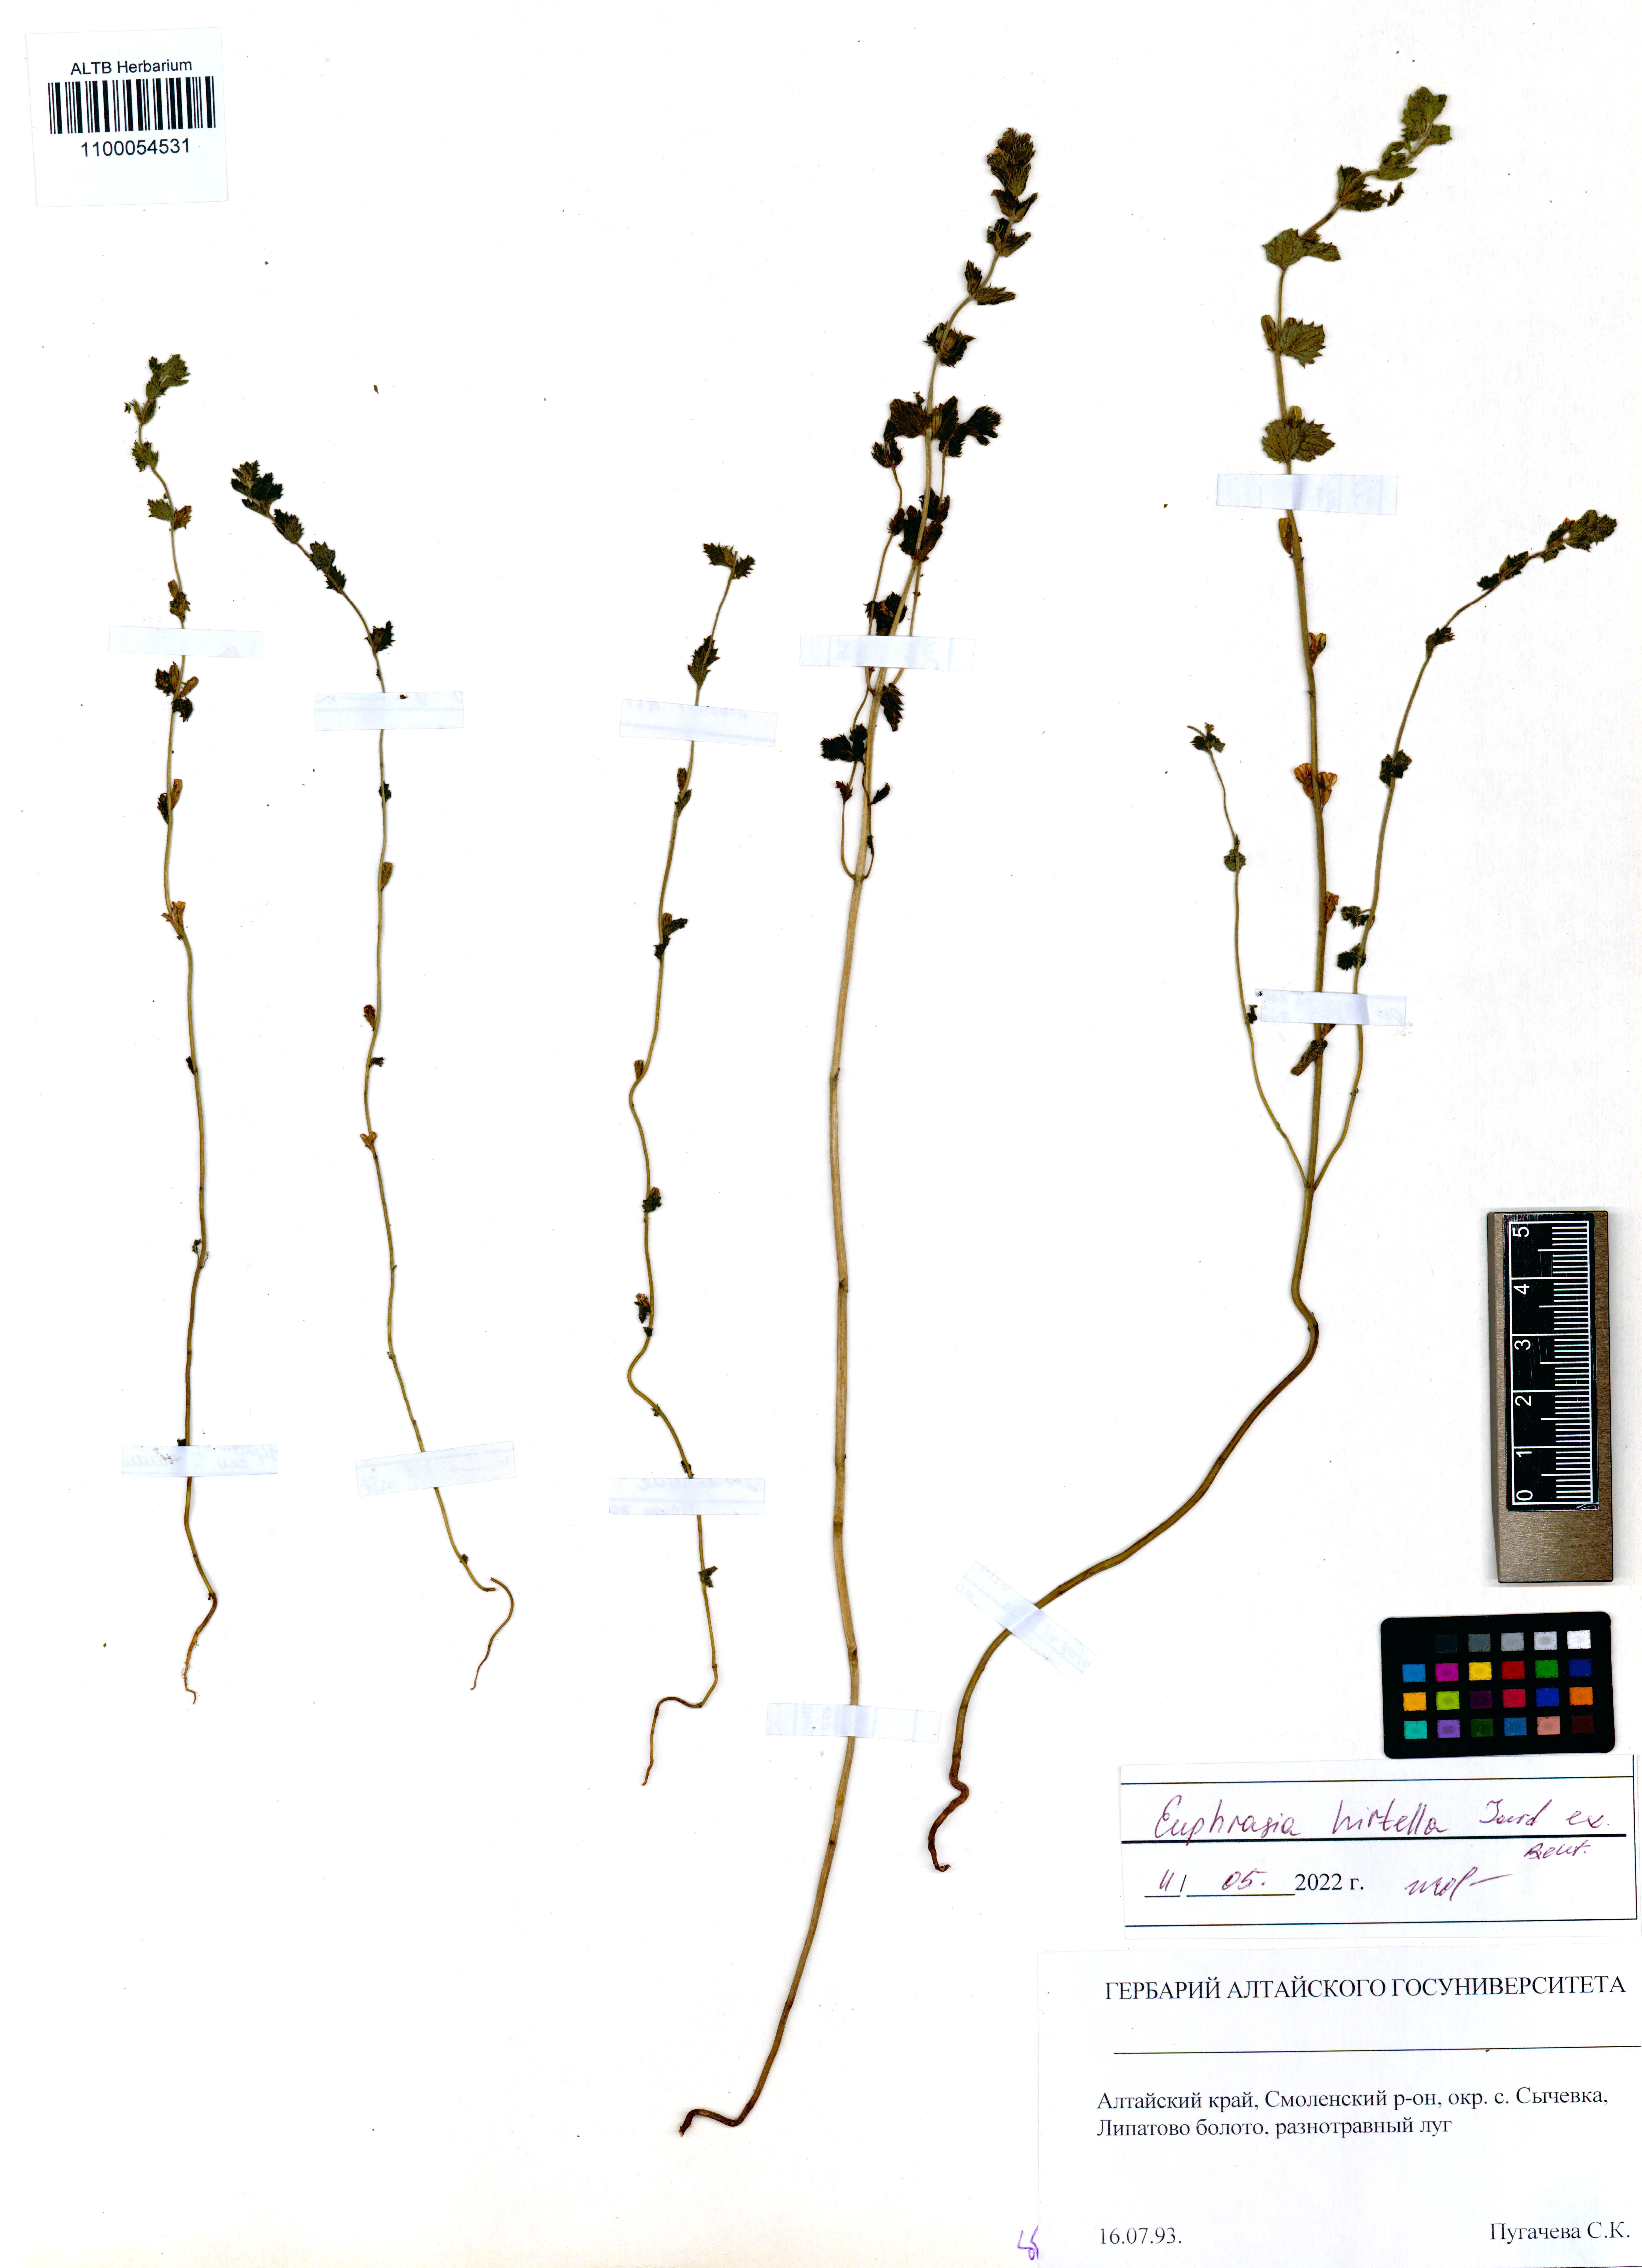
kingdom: Plantae
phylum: Tracheophyta
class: Magnoliopsida
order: Lamiales
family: Orobanchaceae
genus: Euphrasia
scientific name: Euphrasia hirtella
